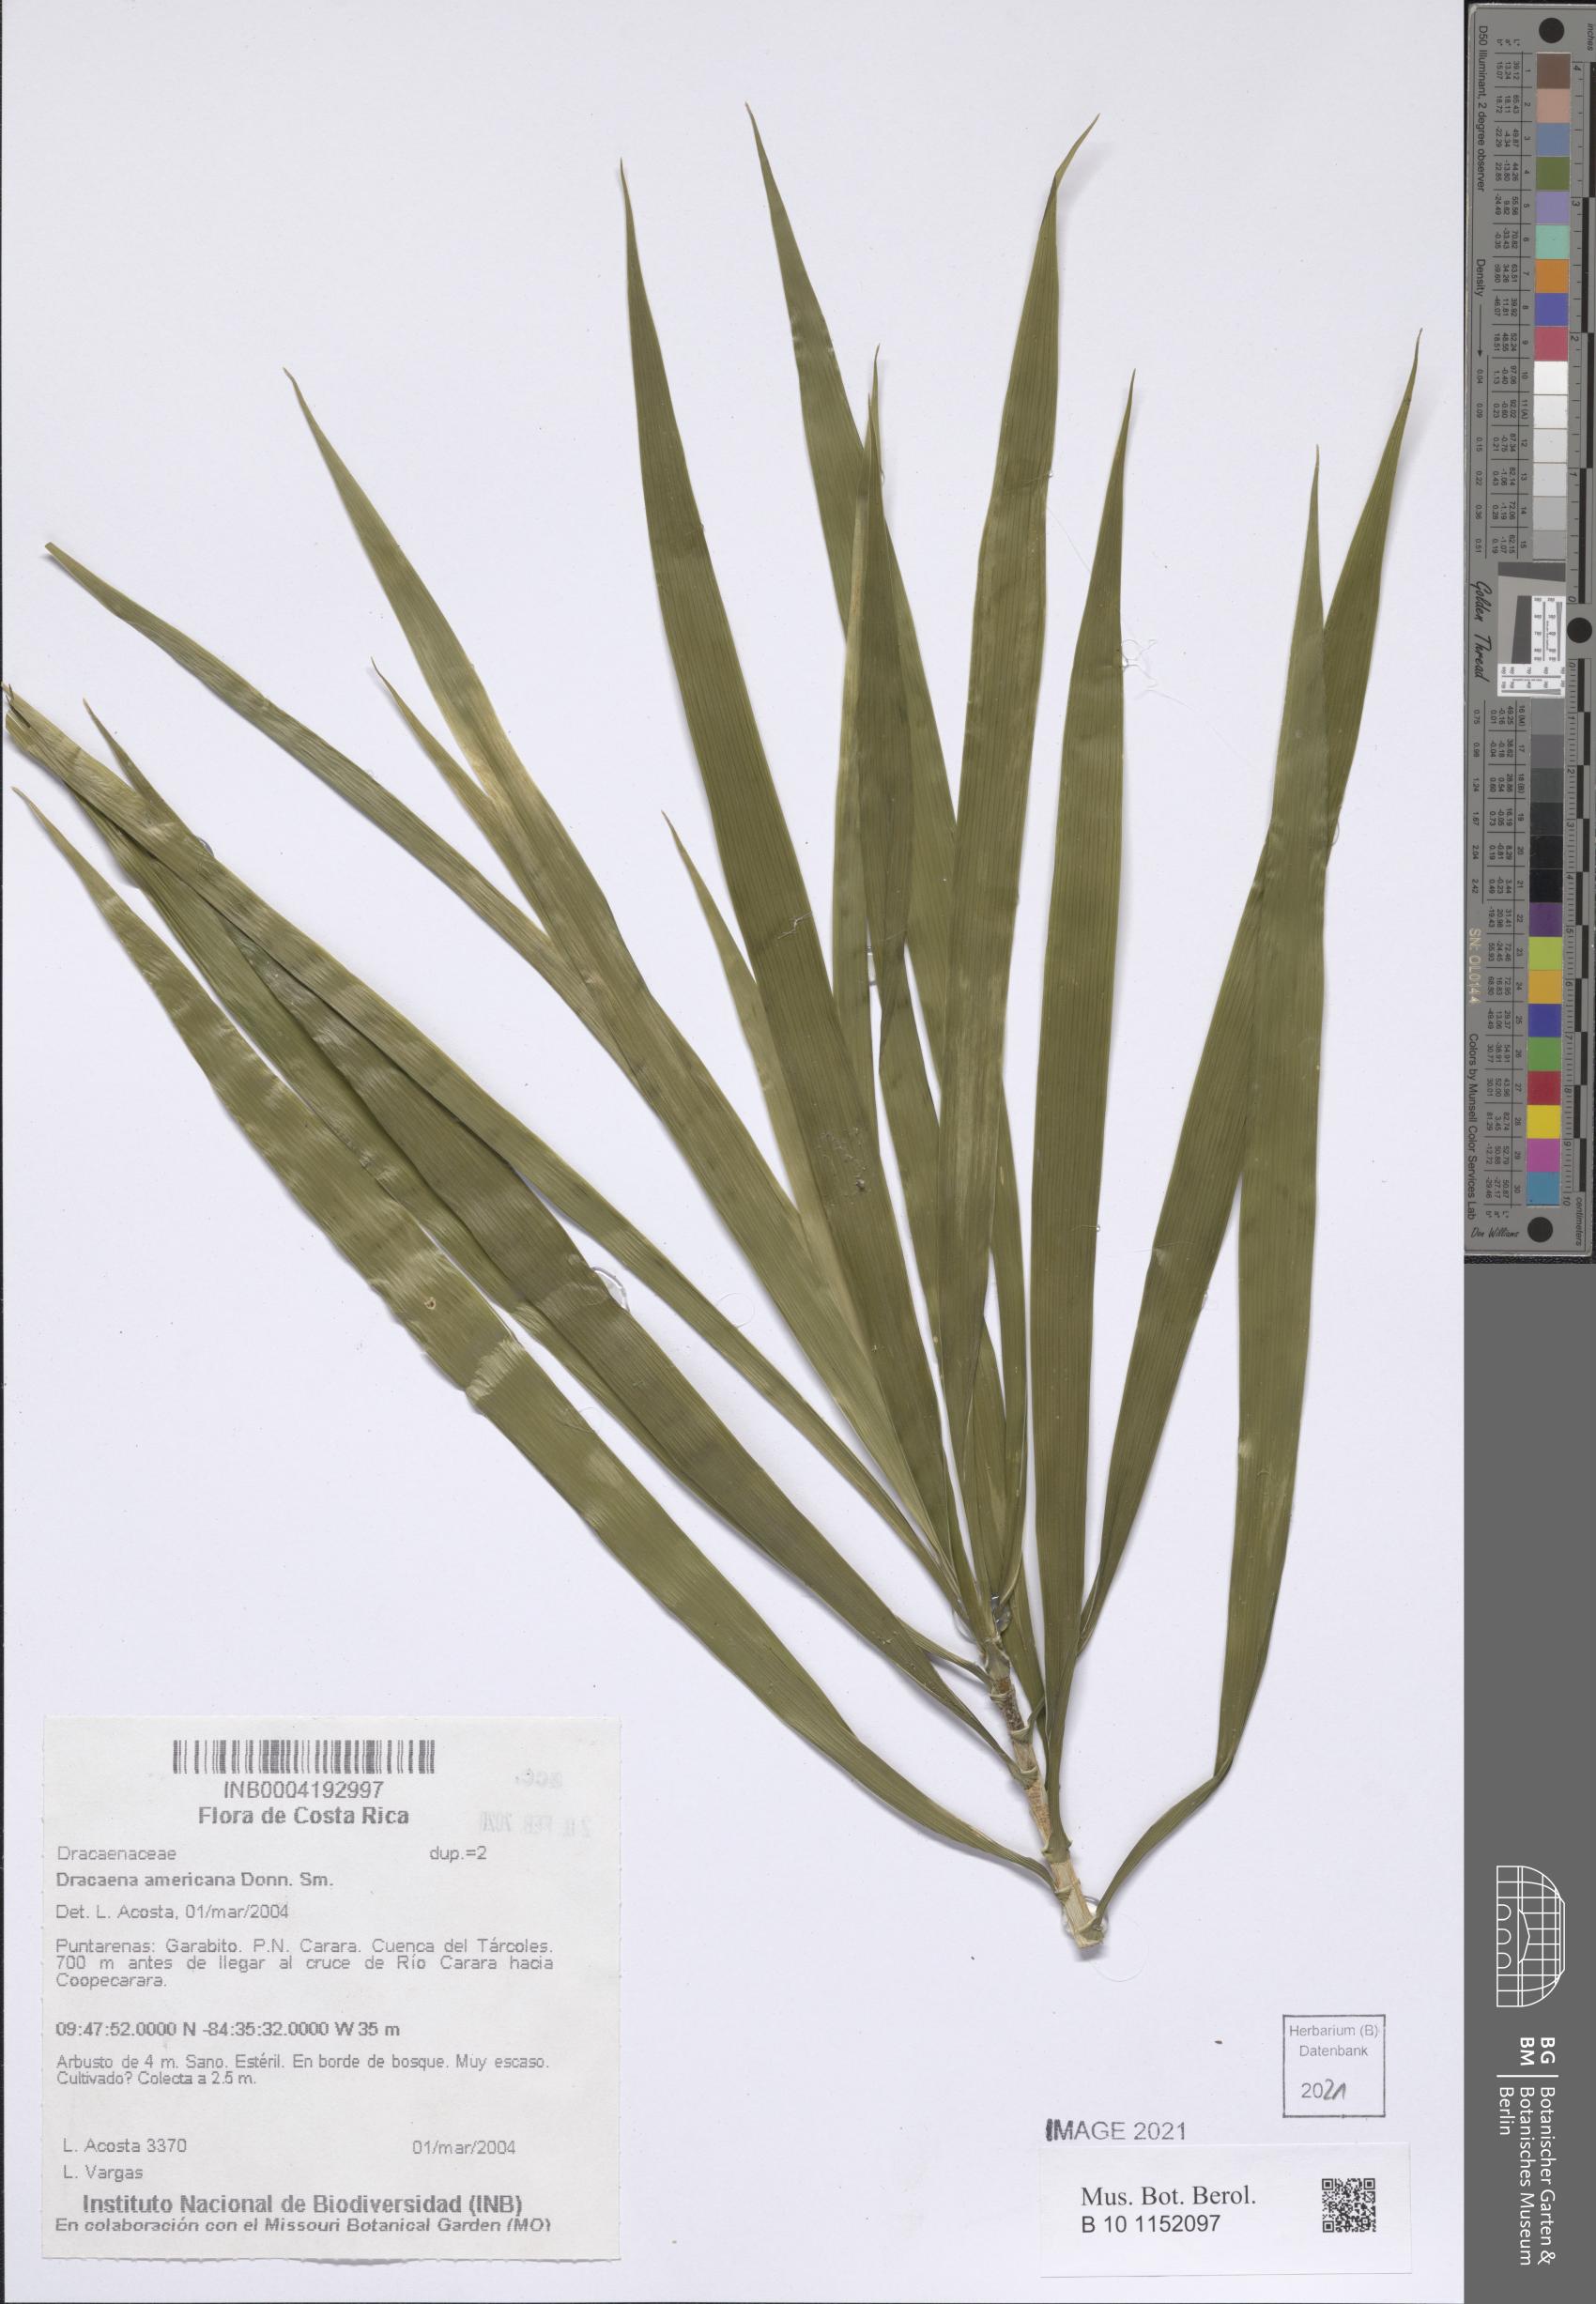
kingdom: Plantae
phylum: Tracheophyta
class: Liliopsida
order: Asparagales
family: Asparagaceae
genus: Dracaena
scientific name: Dracaena ghiesbreghtii
